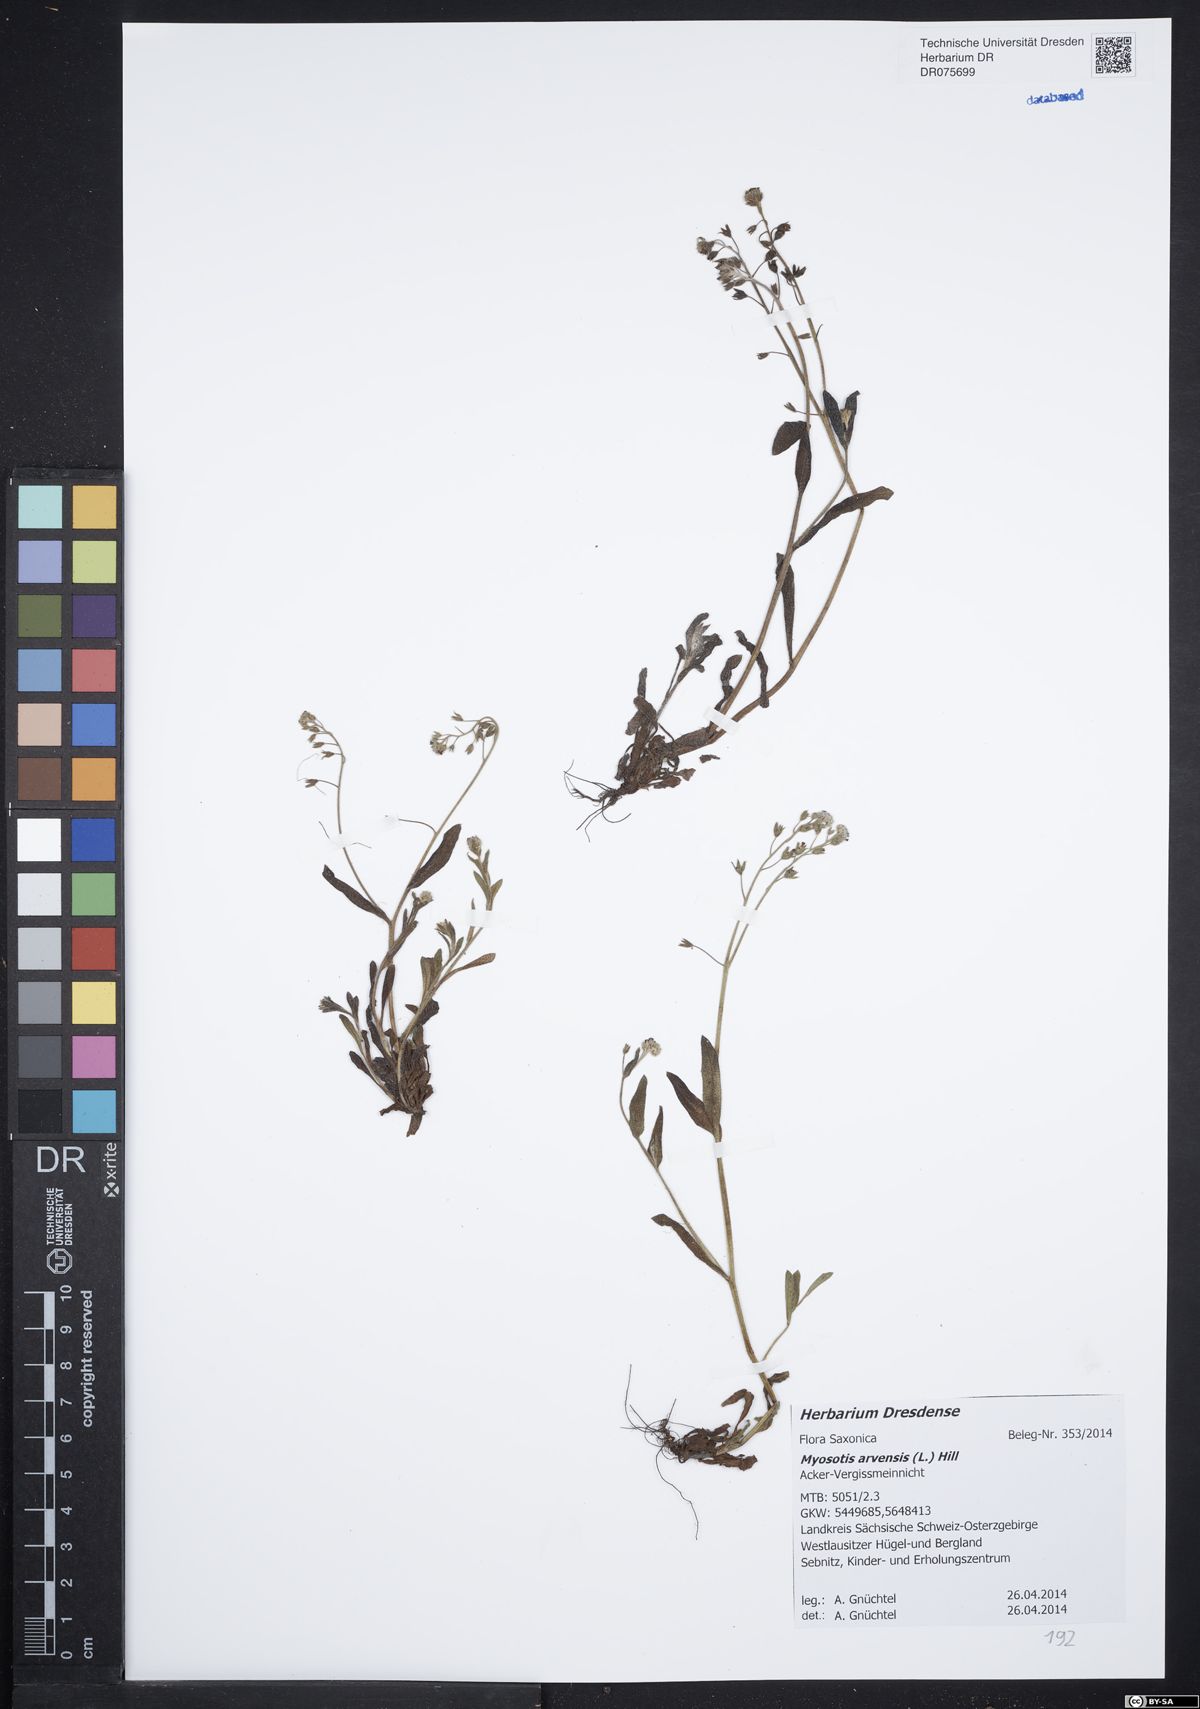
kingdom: Plantae
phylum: Tracheophyta
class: Magnoliopsida
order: Boraginales
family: Boraginaceae
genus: Myosotis
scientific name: Myosotis arvensis
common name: Field forget-me-not
